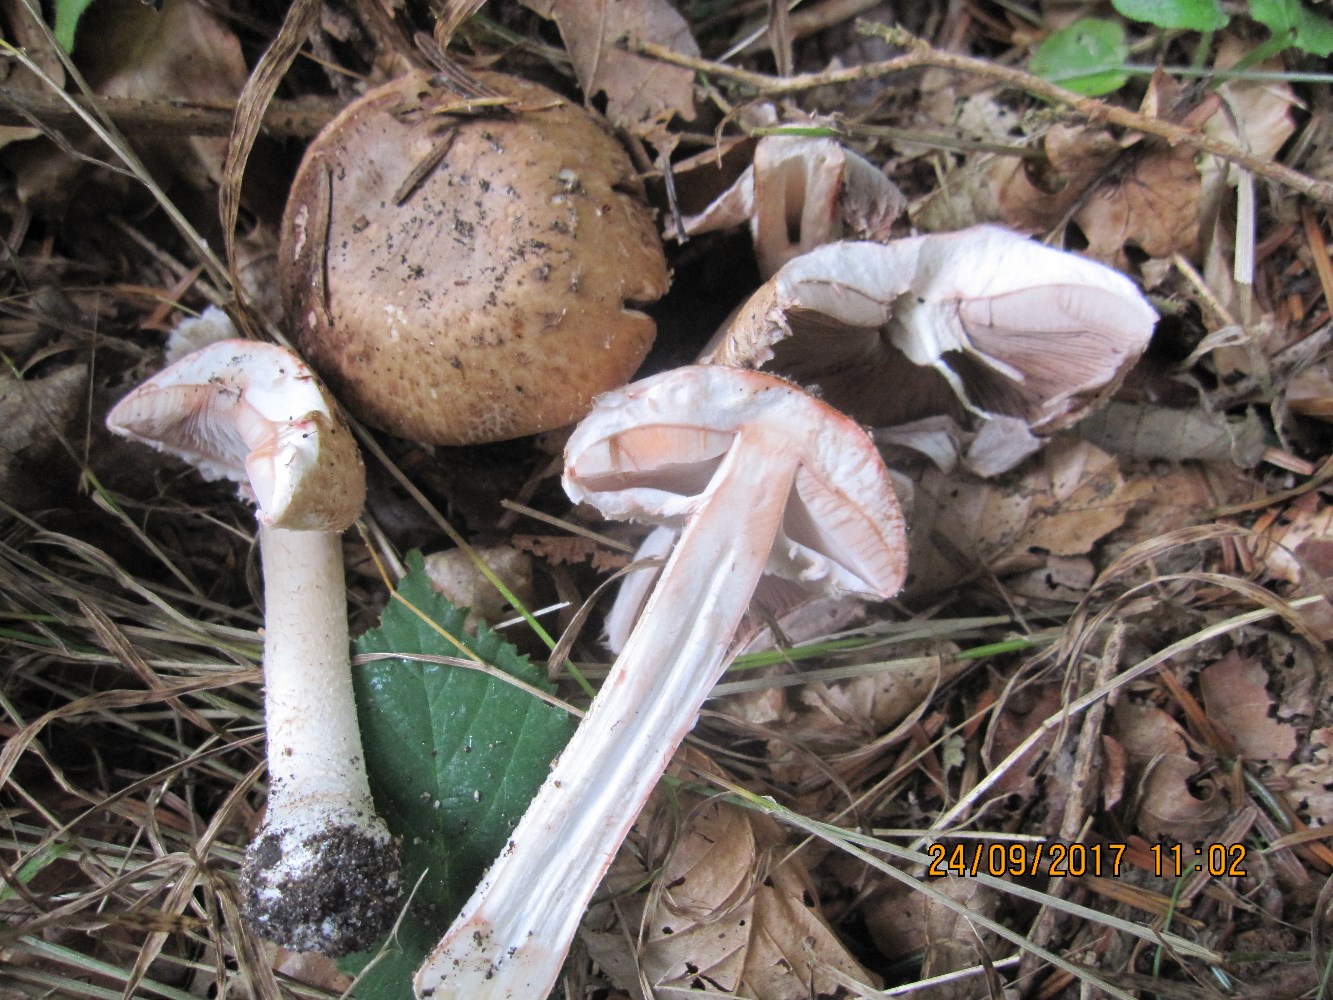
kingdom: Fungi
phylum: Basidiomycota
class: Agaricomycetes
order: Agaricales
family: Agaricaceae
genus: Agaricus
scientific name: Agaricus sylvaticus
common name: lille blod-champignon
